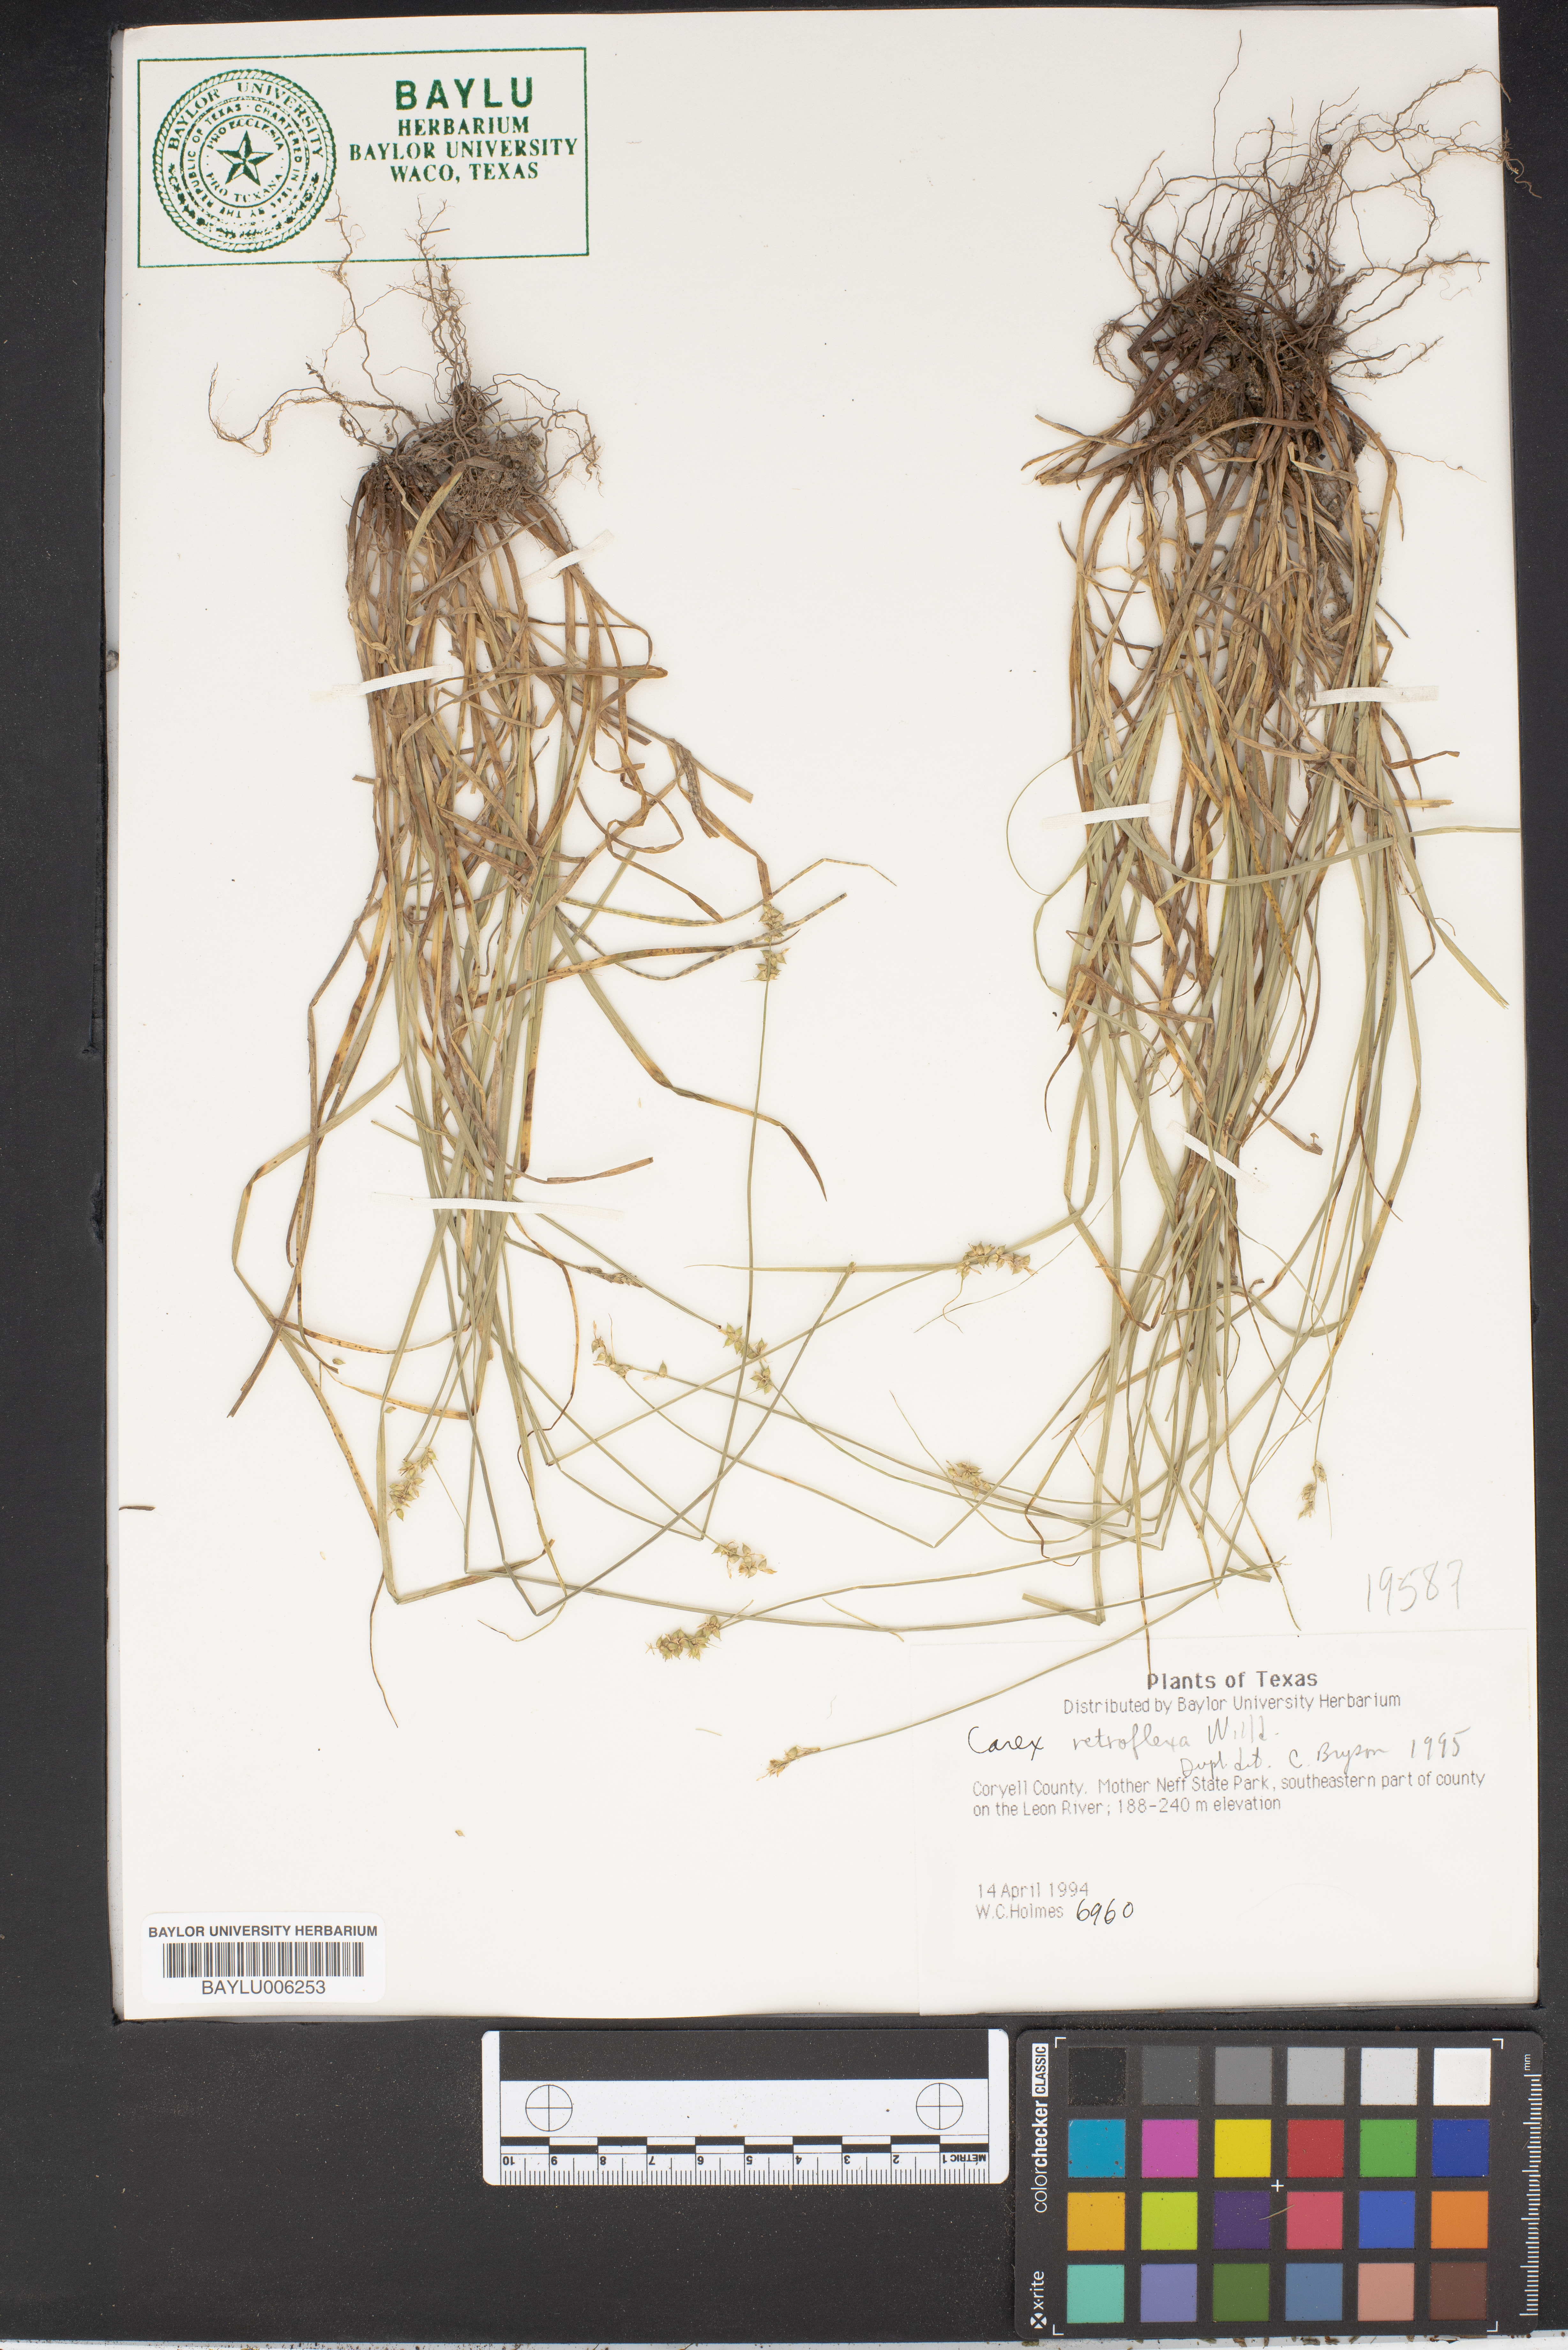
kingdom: Plantae
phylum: Tracheophyta
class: Liliopsida
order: Poales
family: Cyperaceae
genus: Carex
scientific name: Carex retroflexa
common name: Reflexed sedge
